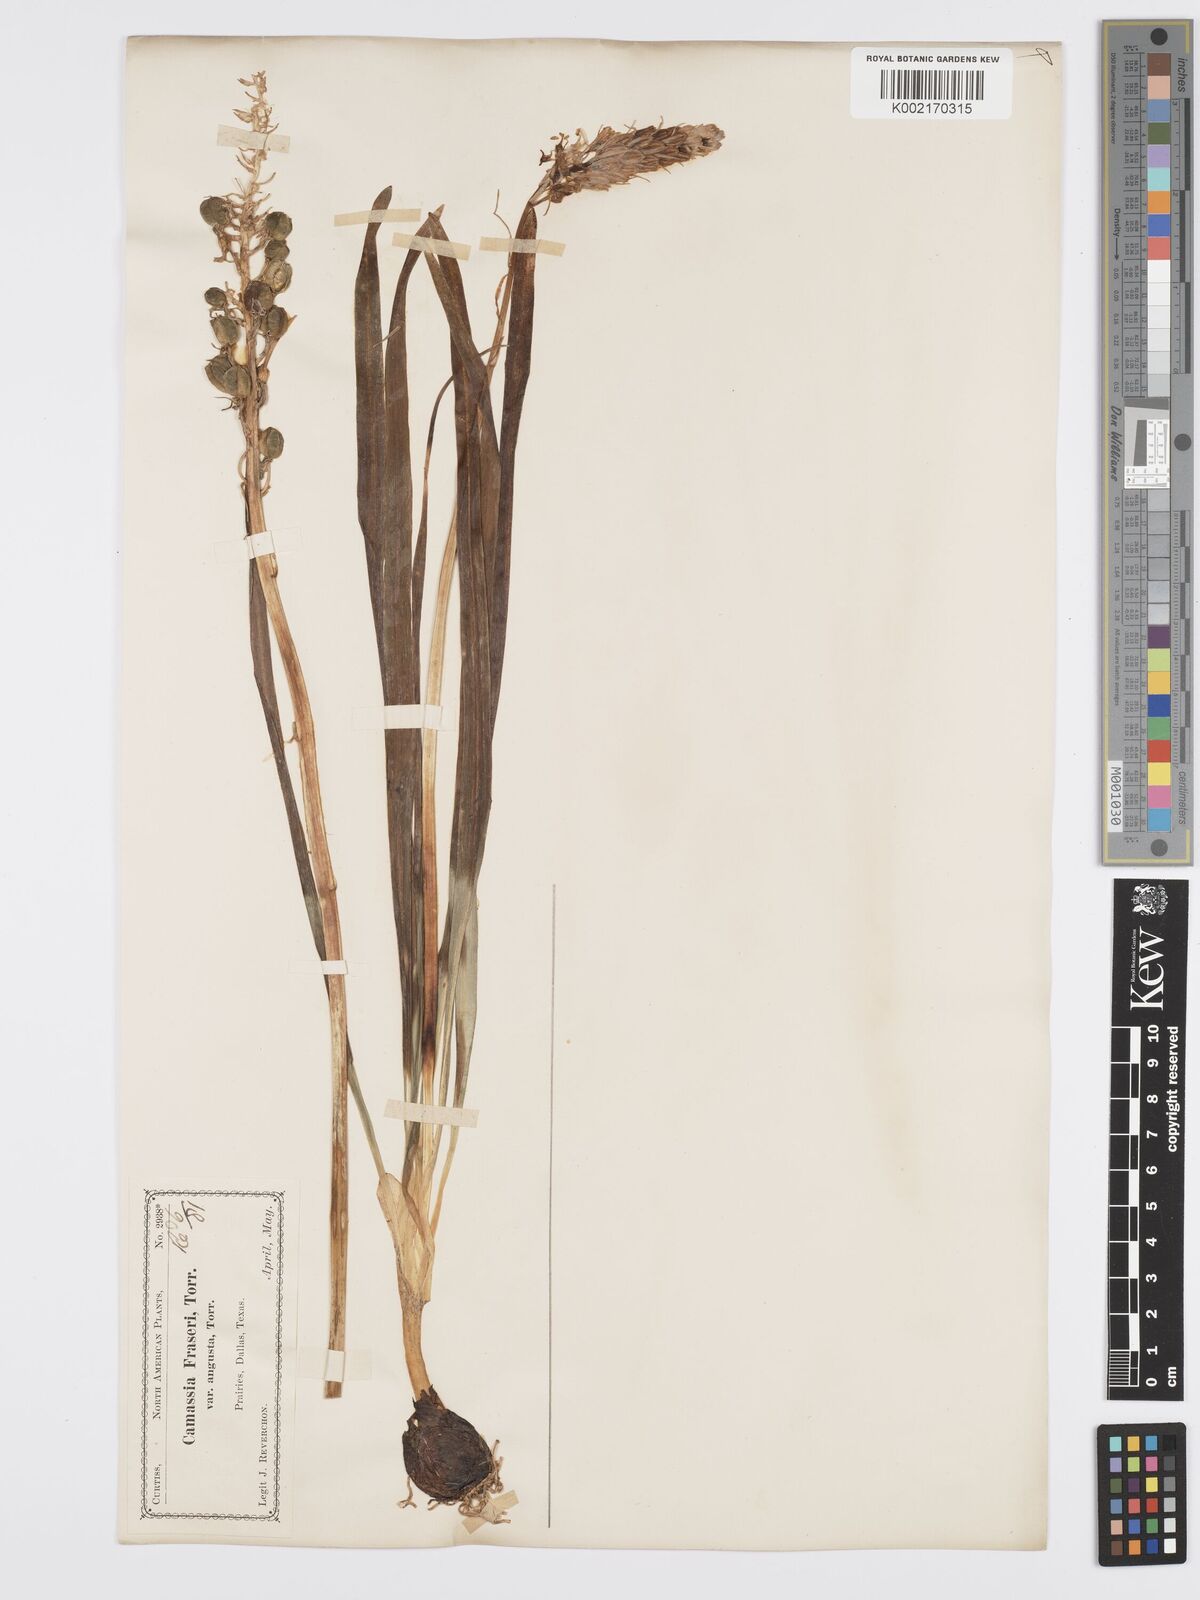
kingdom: Plantae
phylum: Tracheophyta
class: Liliopsida
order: Asparagales
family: Asparagaceae
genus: Camassia
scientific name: Camassia scilloides
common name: Wild hyacinth
